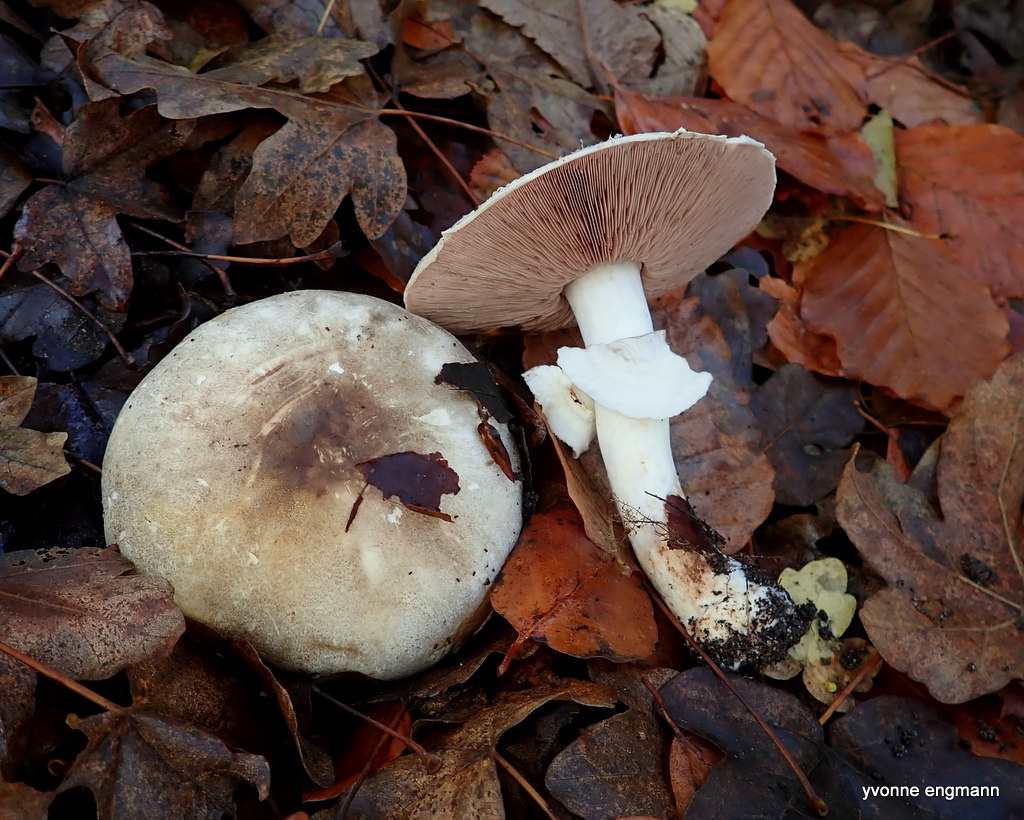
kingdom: Fungi
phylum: Basidiomycota
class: Agaricomycetes
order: Agaricales
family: Agaricaceae
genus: Agaricus
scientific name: Agaricus moelleri
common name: perlehøne-champignon
